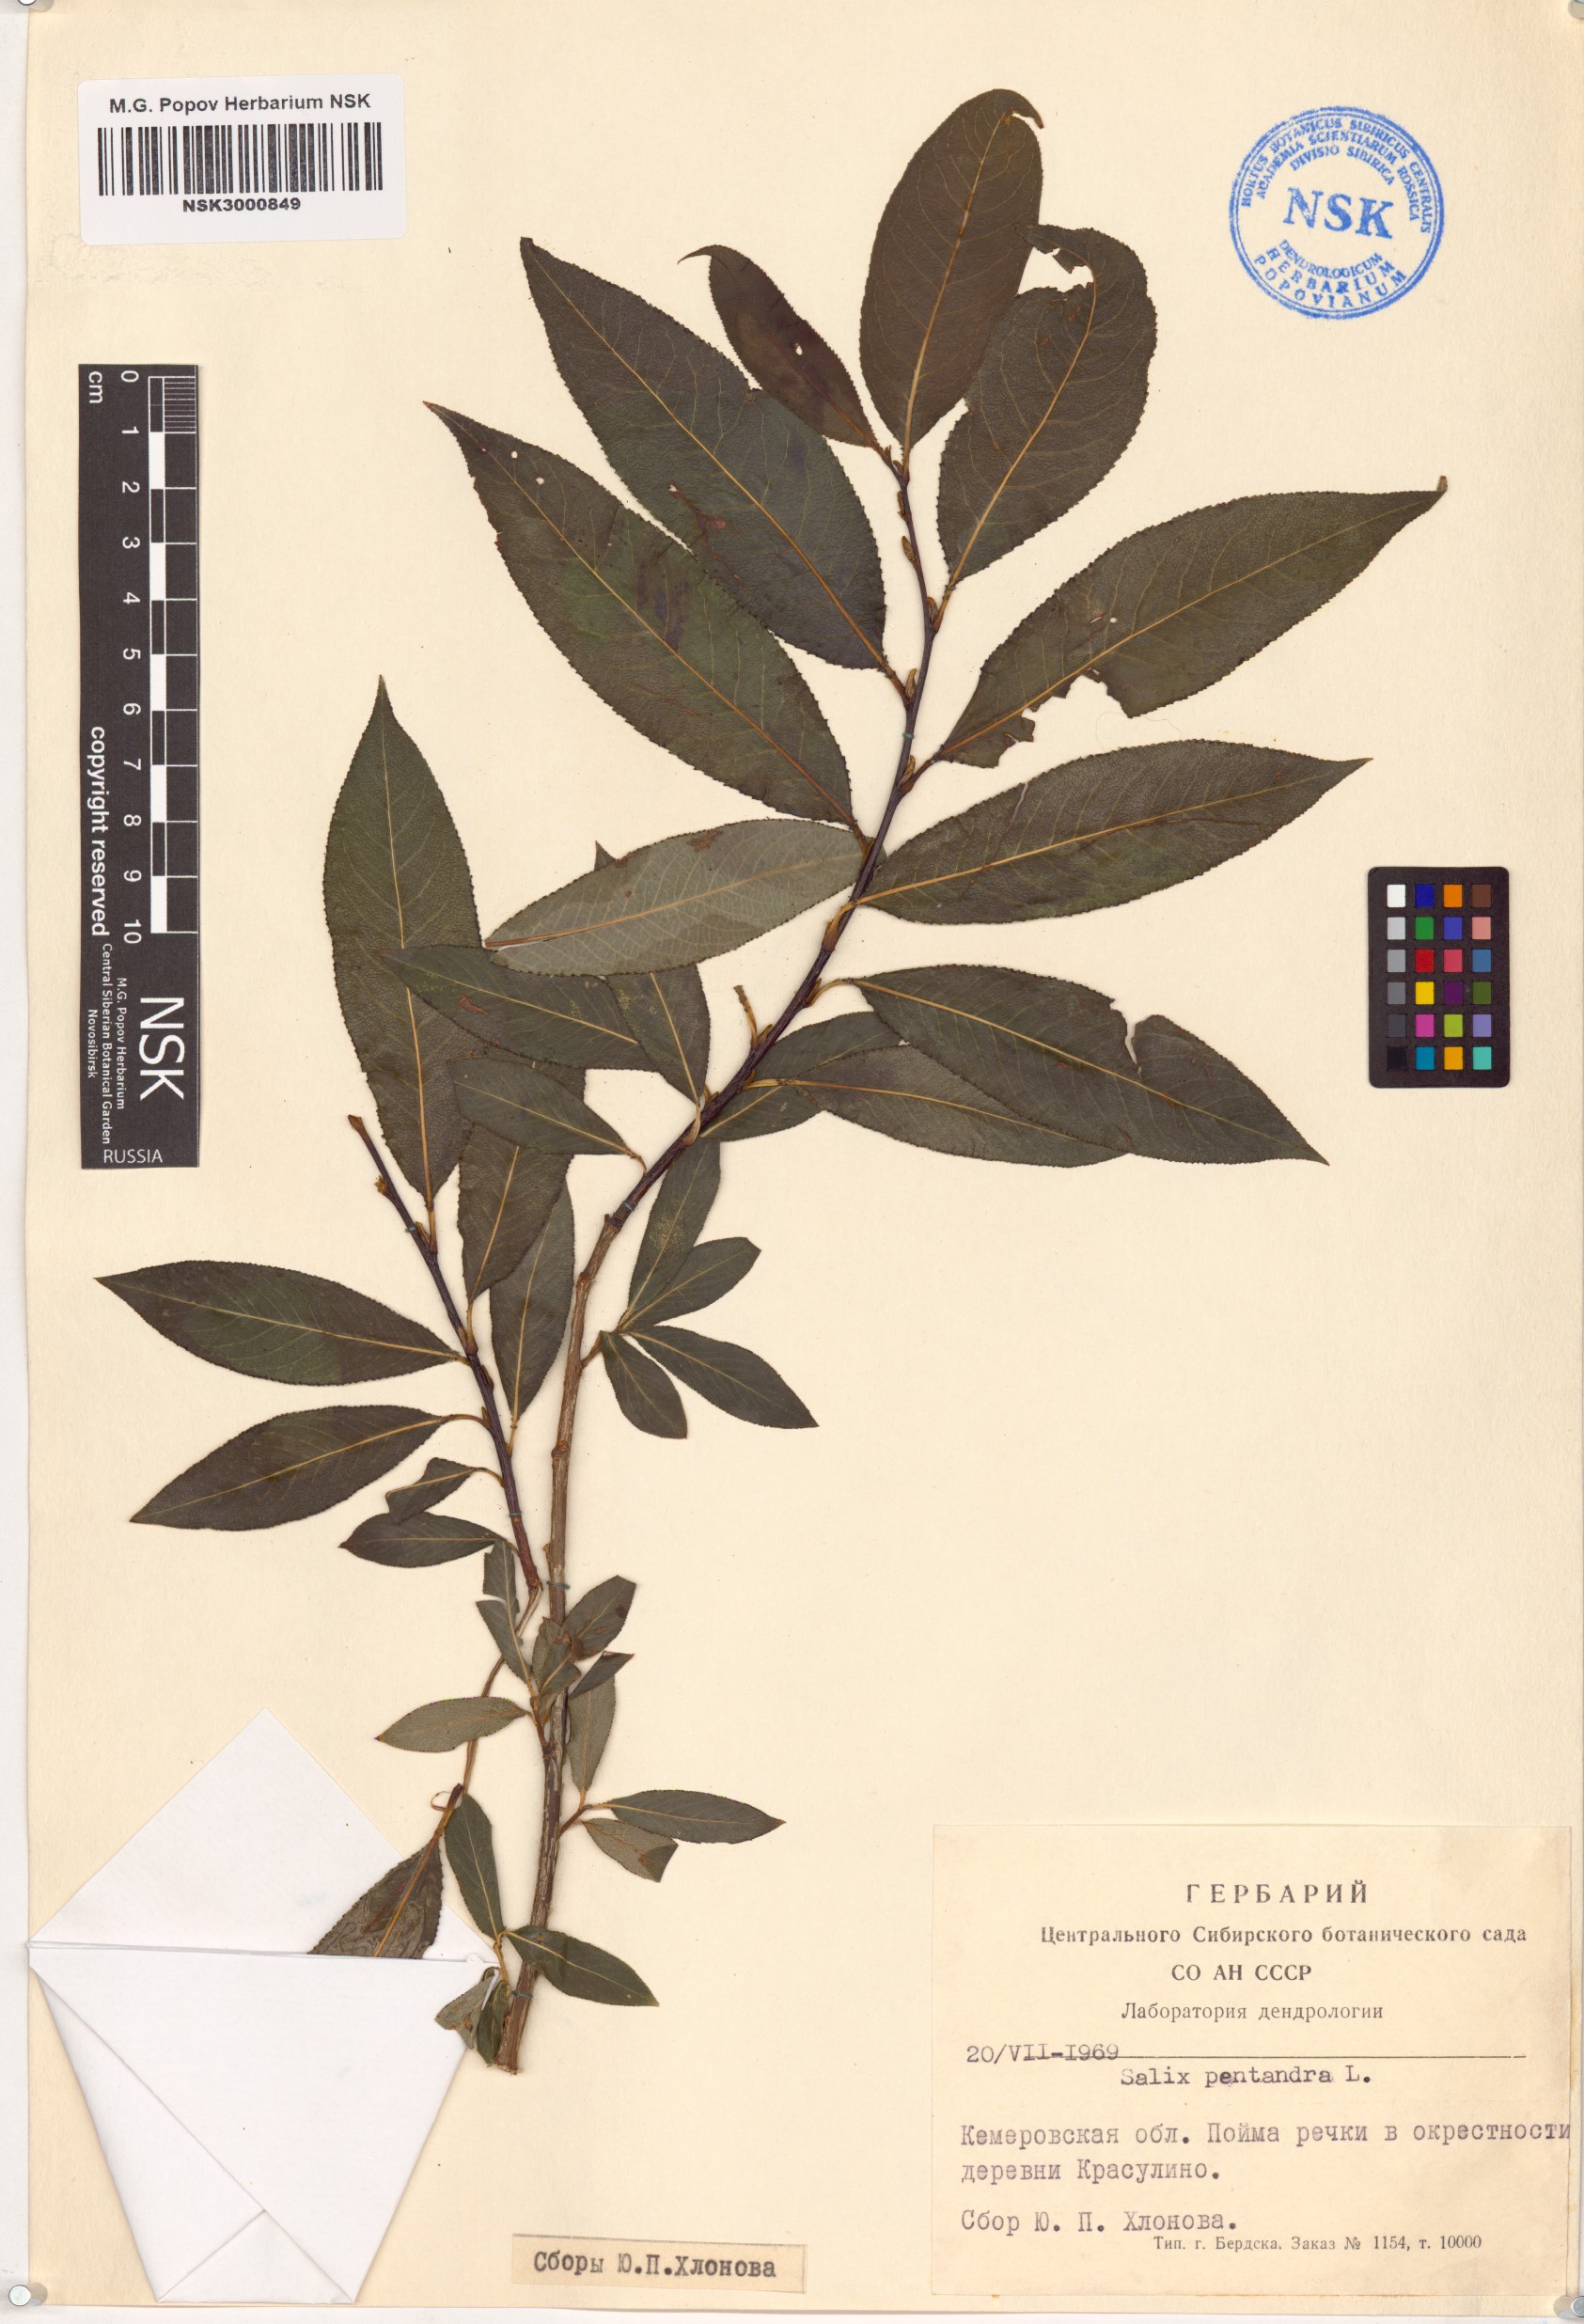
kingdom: Plantae
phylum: Tracheophyta
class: Magnoliopsida
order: Malpighiales
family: Salicaceae
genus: Salix
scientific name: Salix pentandra
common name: Bay willow
